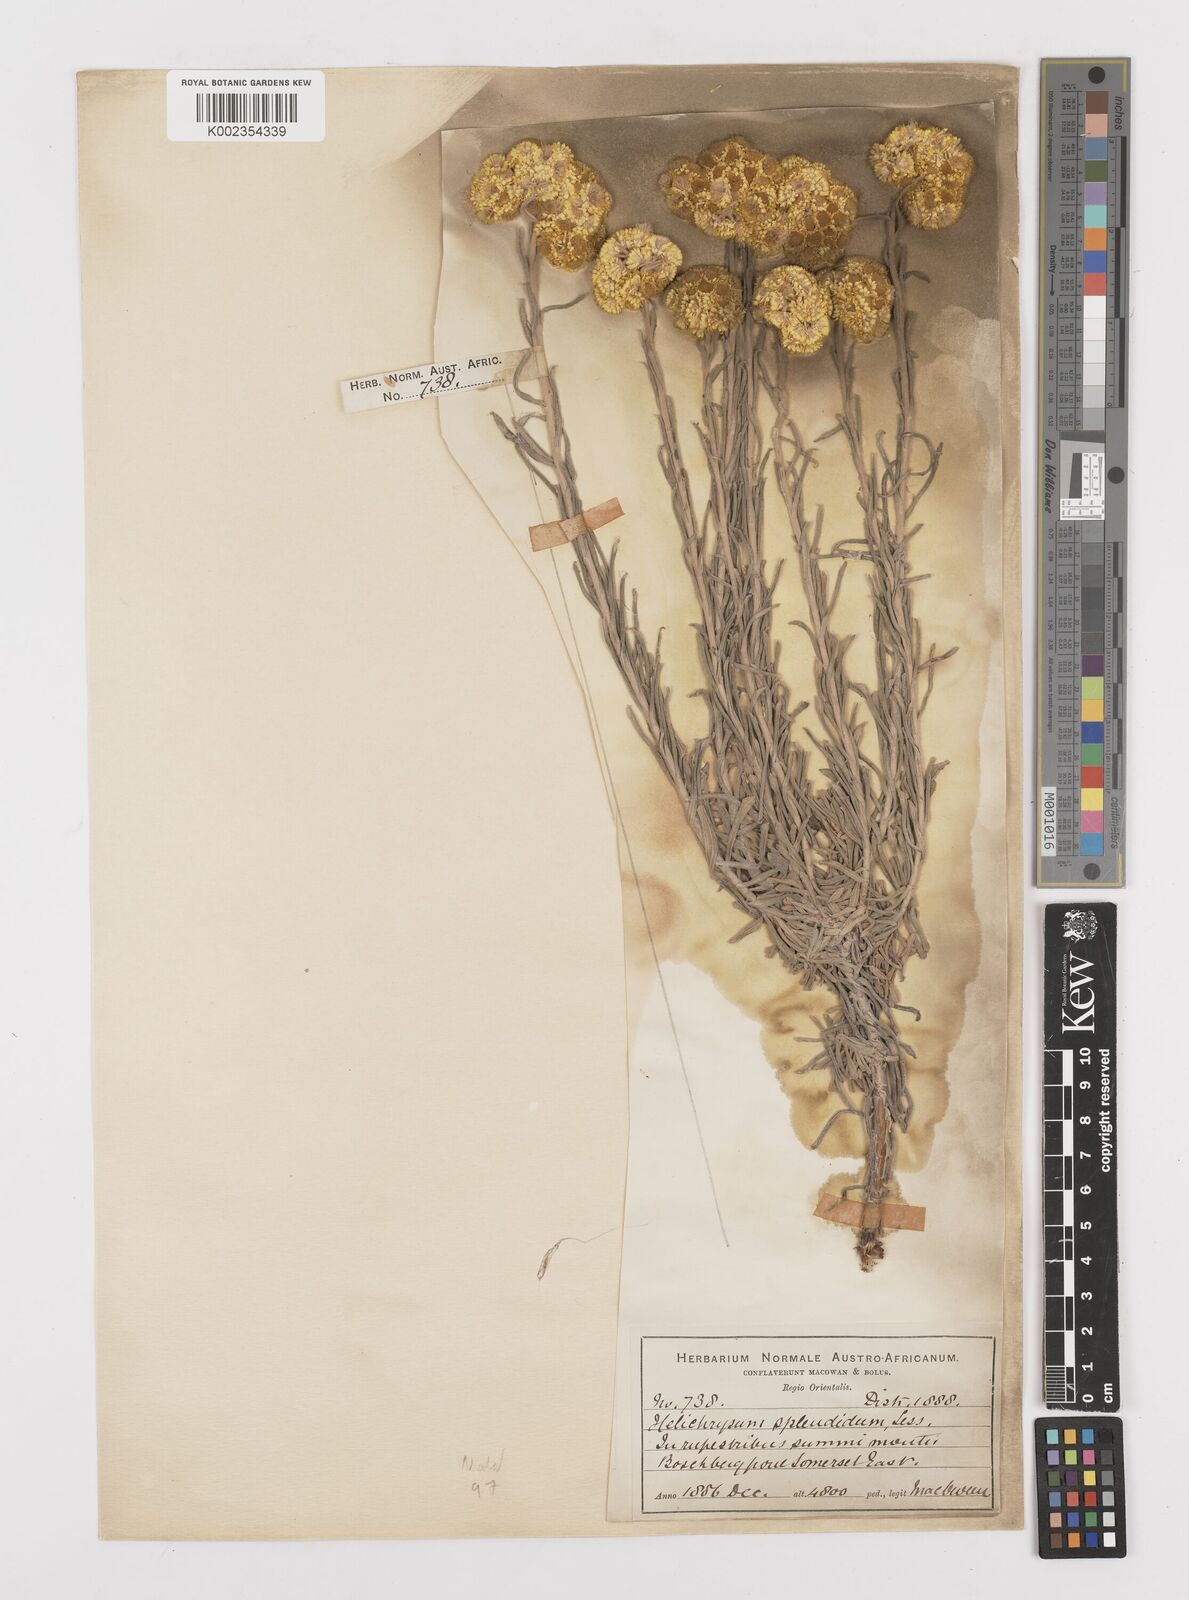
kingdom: Plantae
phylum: Tracheophyta
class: Magnoliopsida
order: Asterales
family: Asteraceae
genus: Helichrysum
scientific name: Helichrysum splendidum
